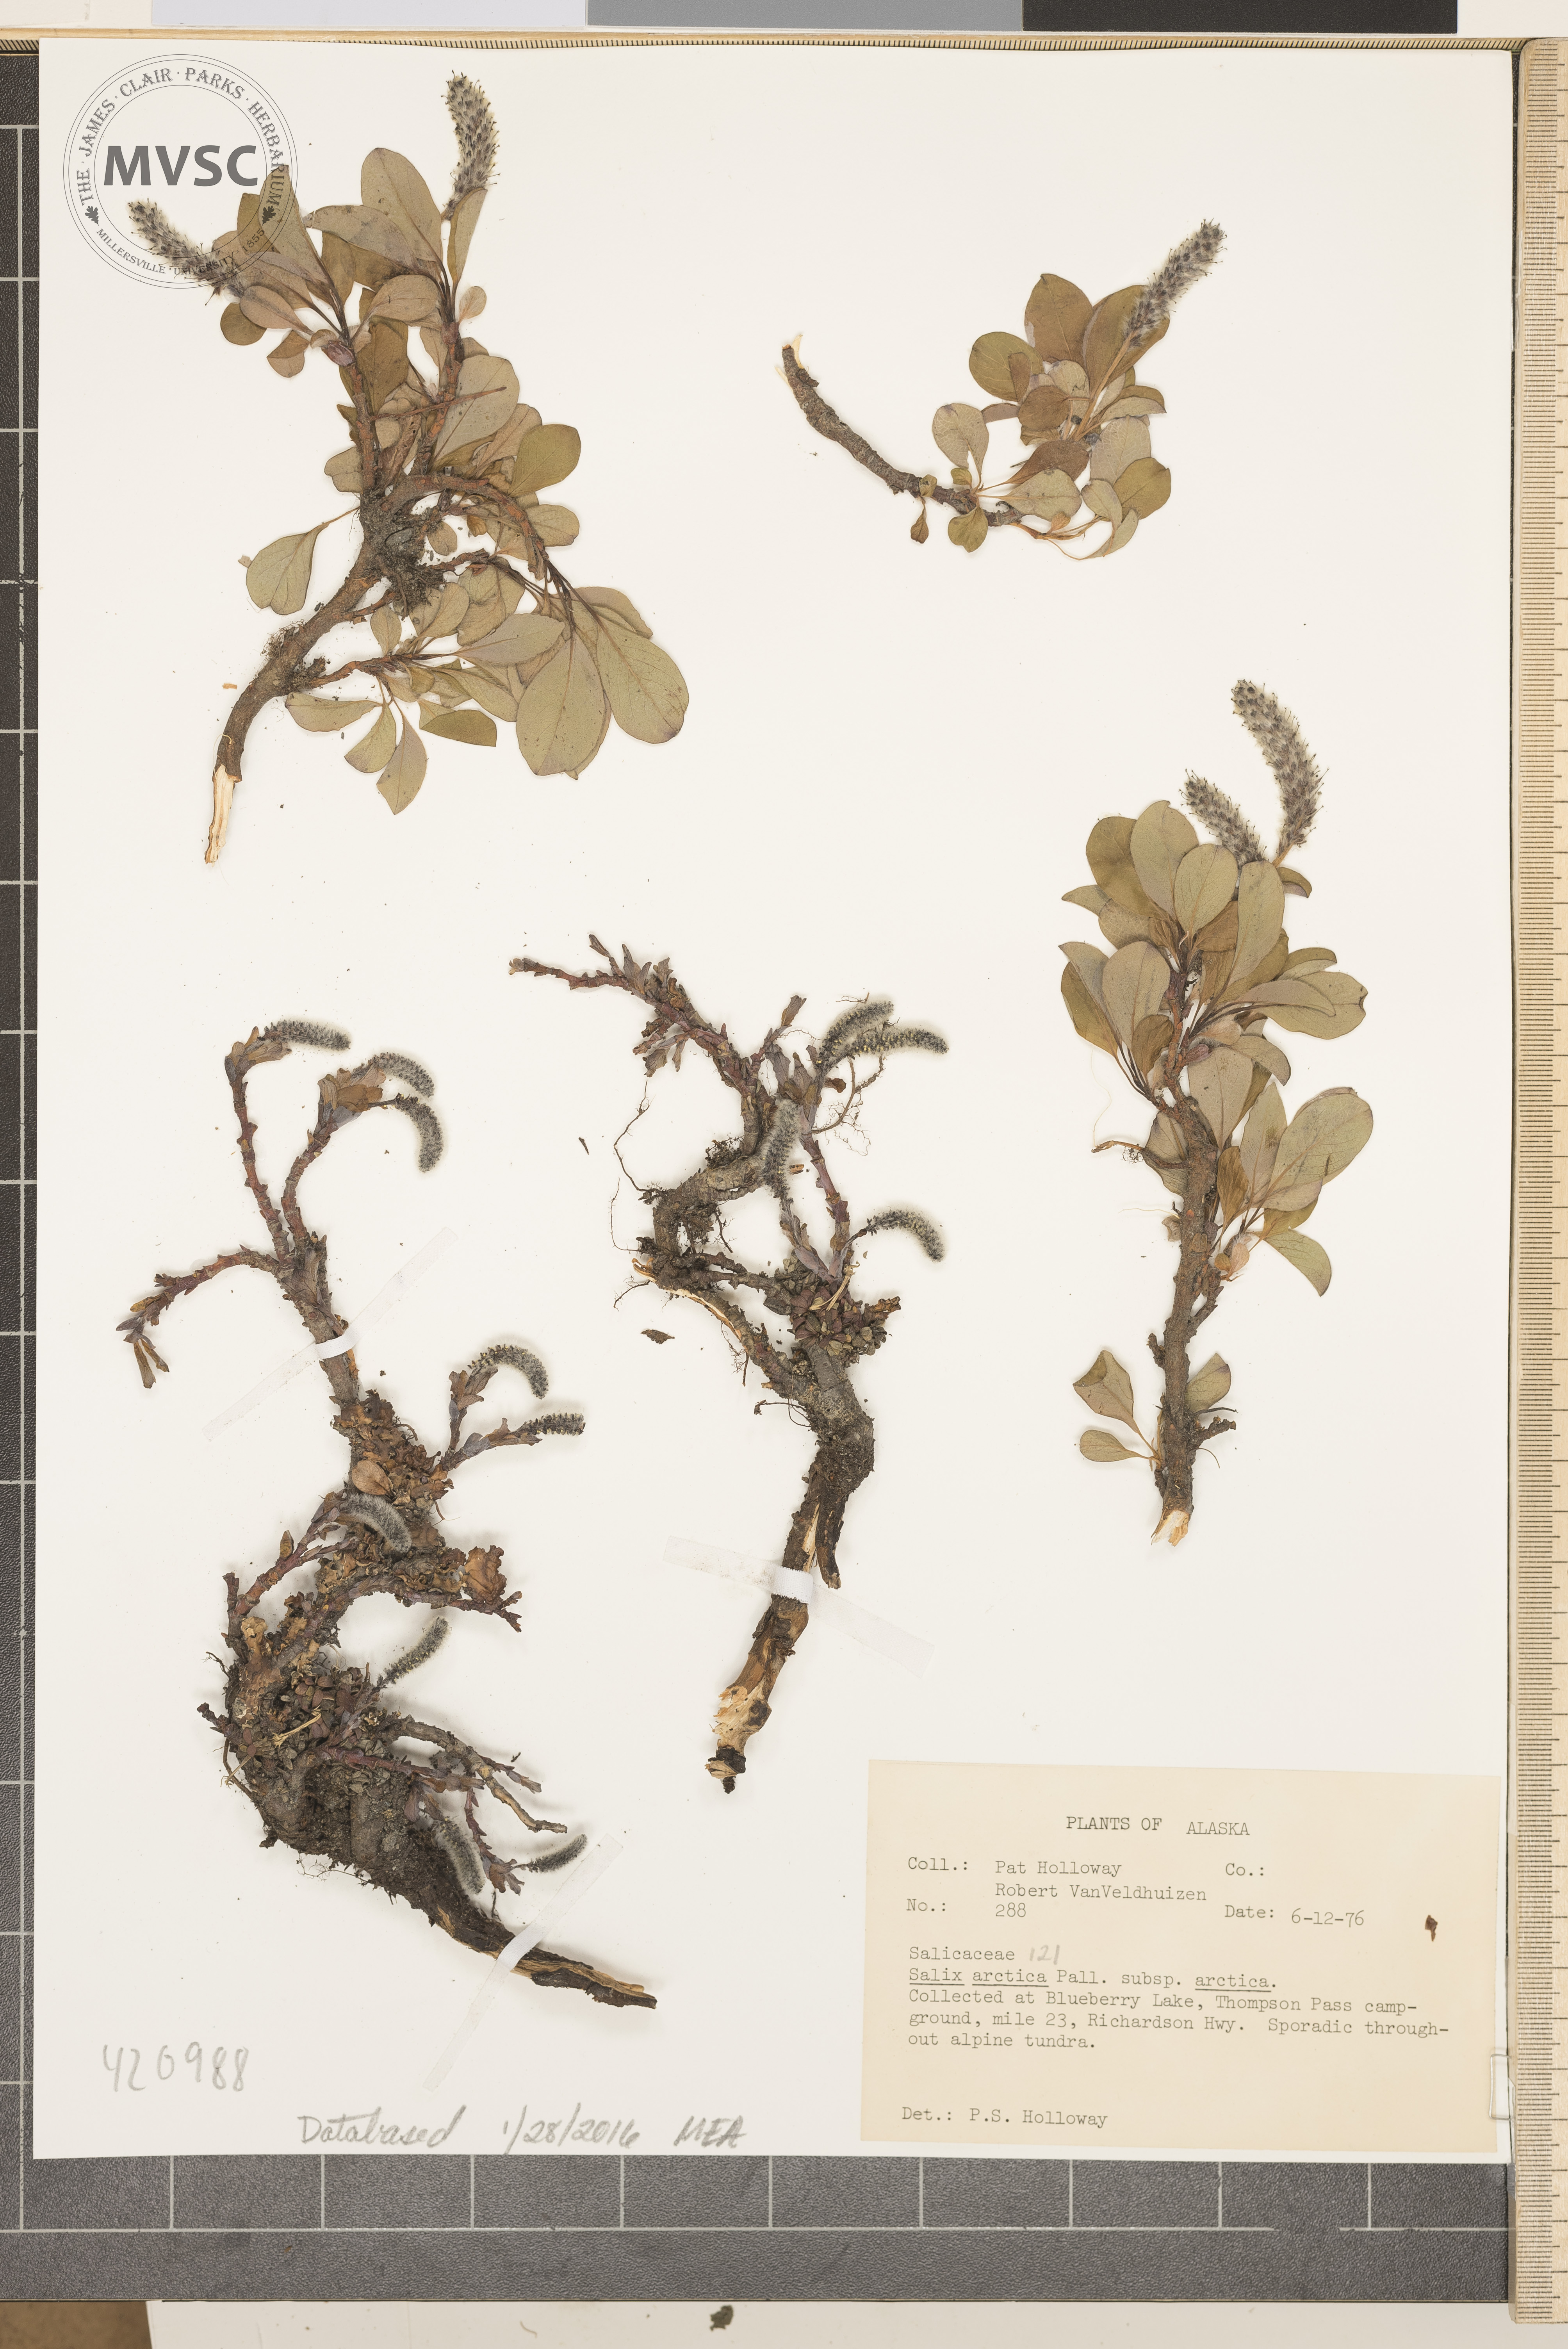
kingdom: Plantae
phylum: Tracheophyta
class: Magnoliopsida
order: Malpighiales
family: Salicaceae
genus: Salix
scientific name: Salix arctica
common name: Arctic Willow
